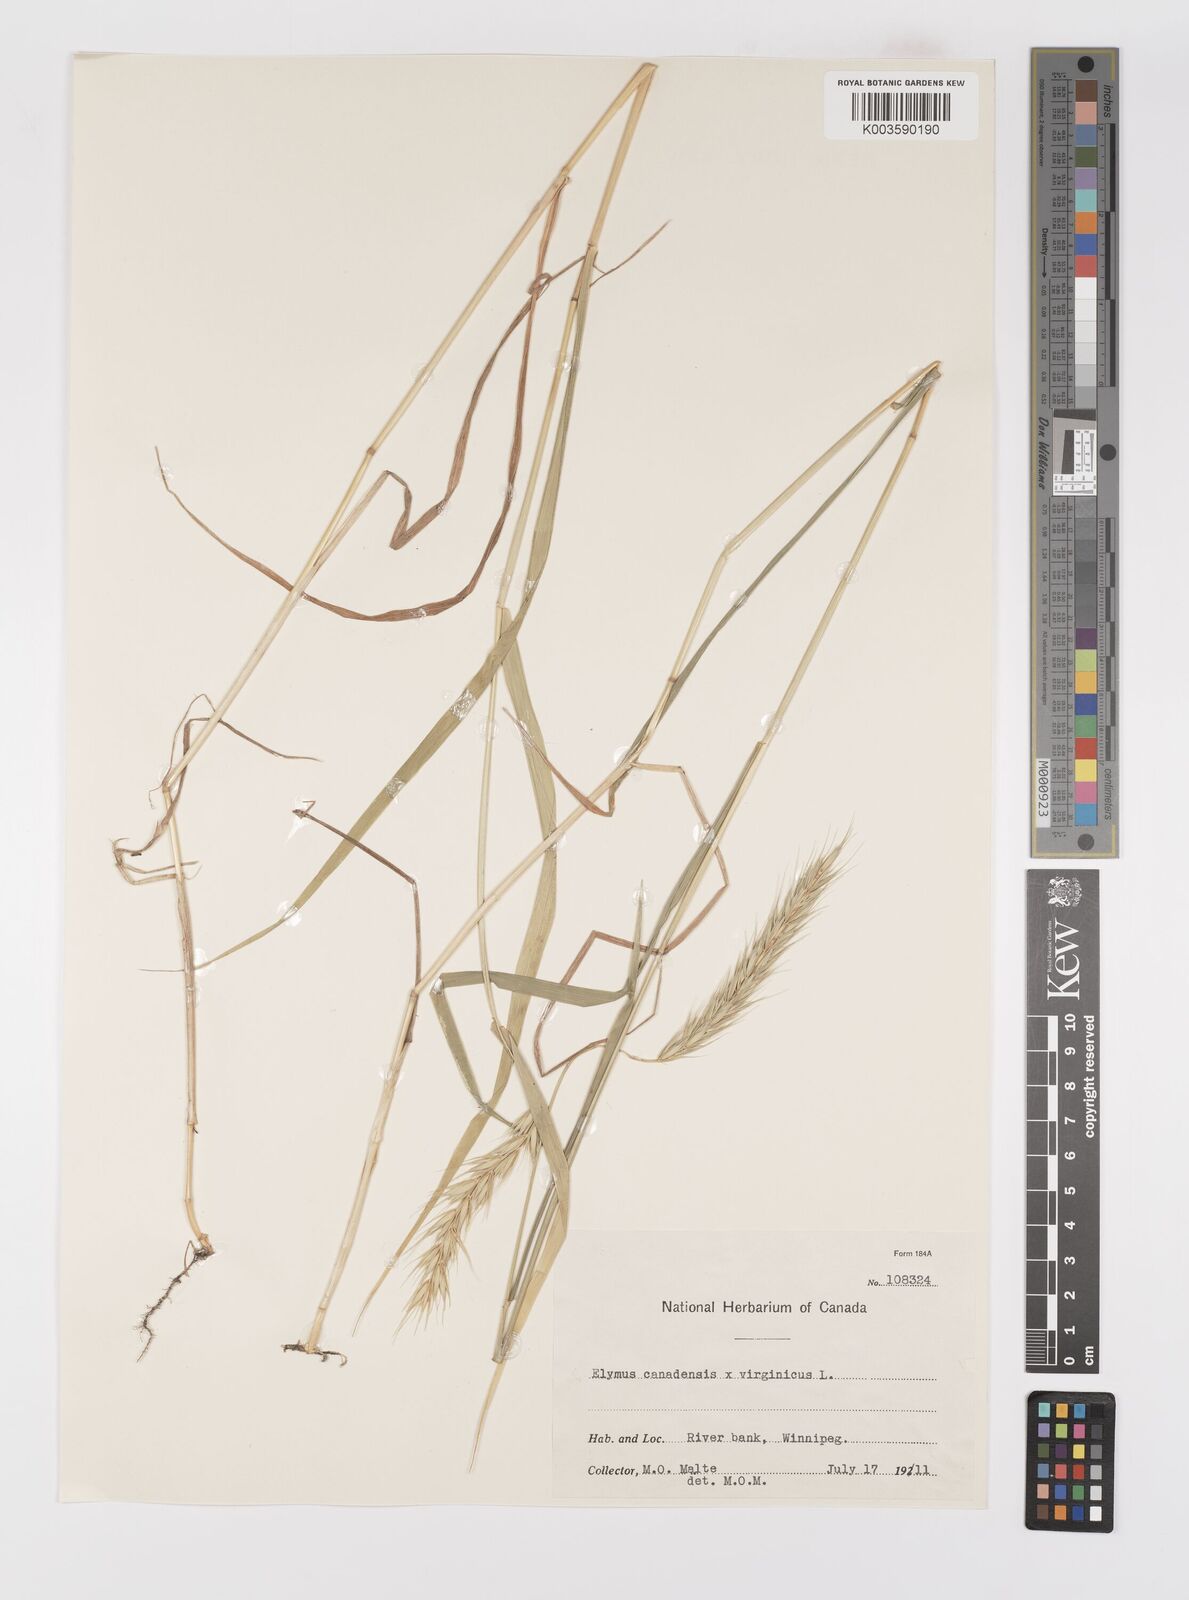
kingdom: Plantae
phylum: Tracheophyta
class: Liliopsida
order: Poales
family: Poaceae
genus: Elymus
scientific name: Elymus virginicus
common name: Common eastern wildrye
